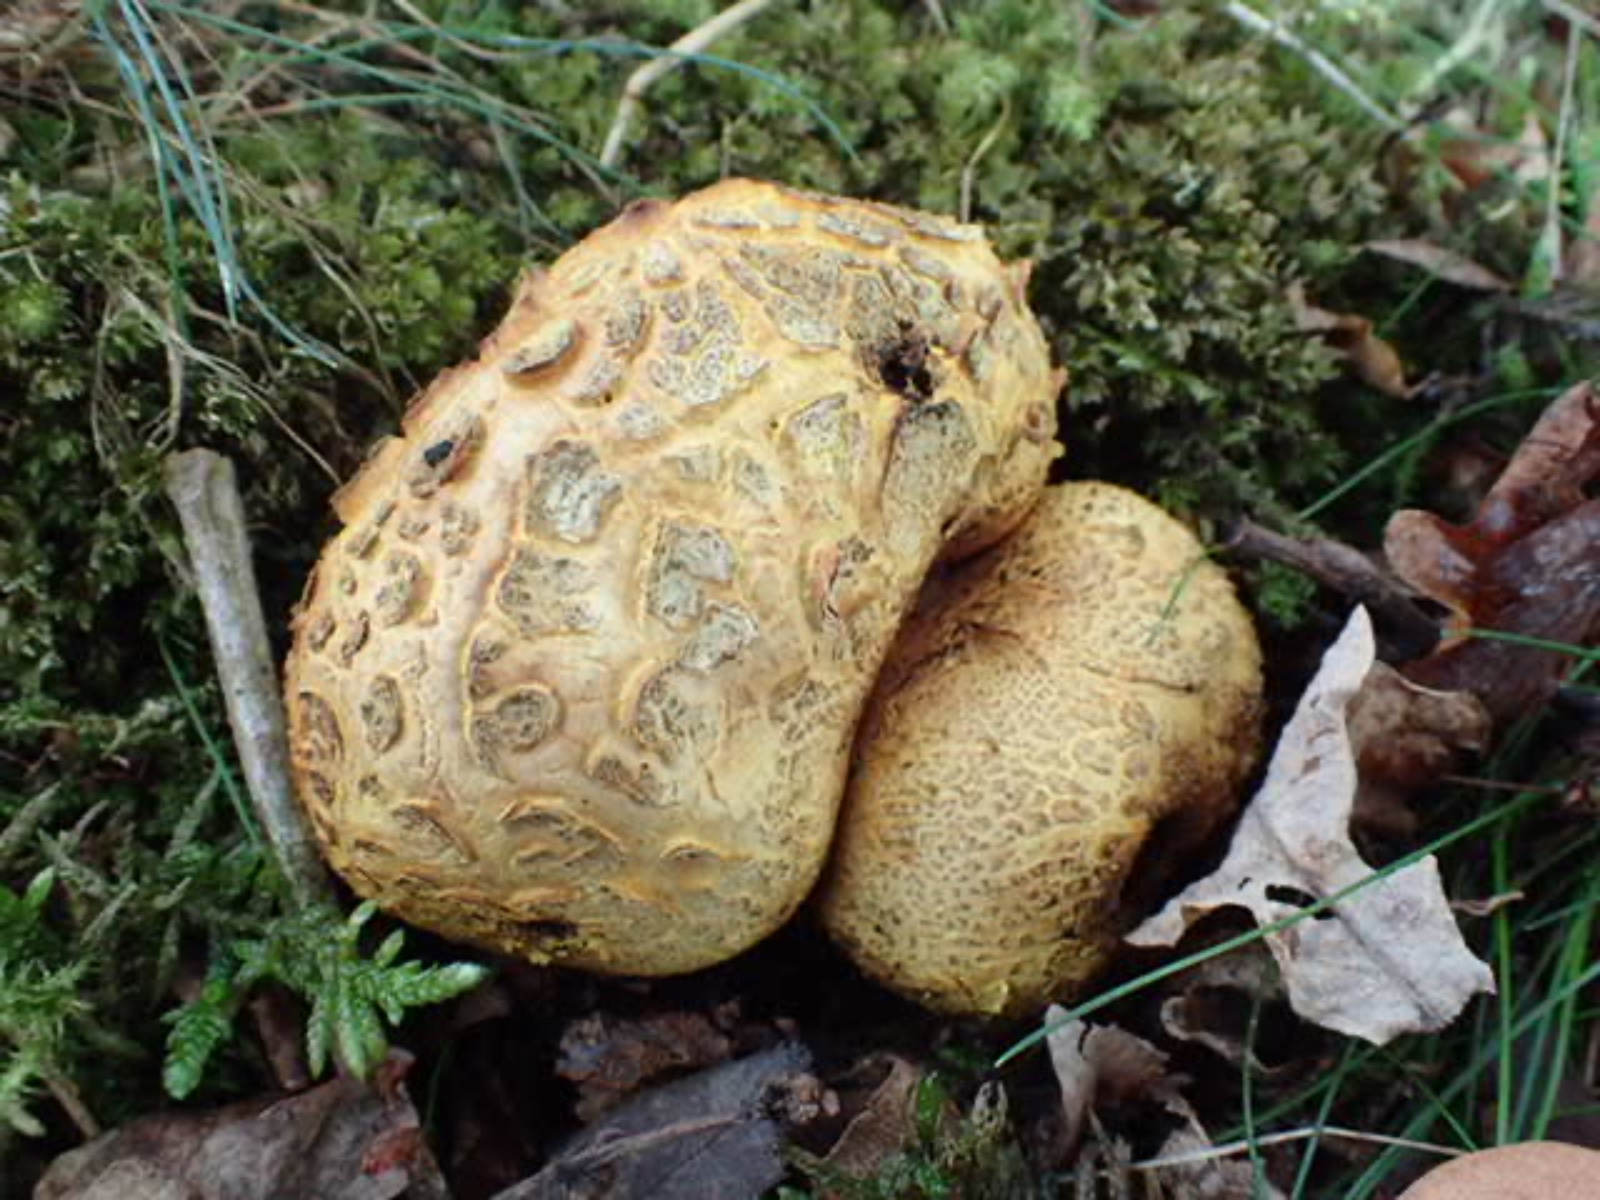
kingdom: Fungi
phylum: Basidiomycota
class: Agaricomycetes
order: Boletales
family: Sclerodermataceae
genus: Scleroderma
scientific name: Scleroderma citrinum
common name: almindelig bruskbold
